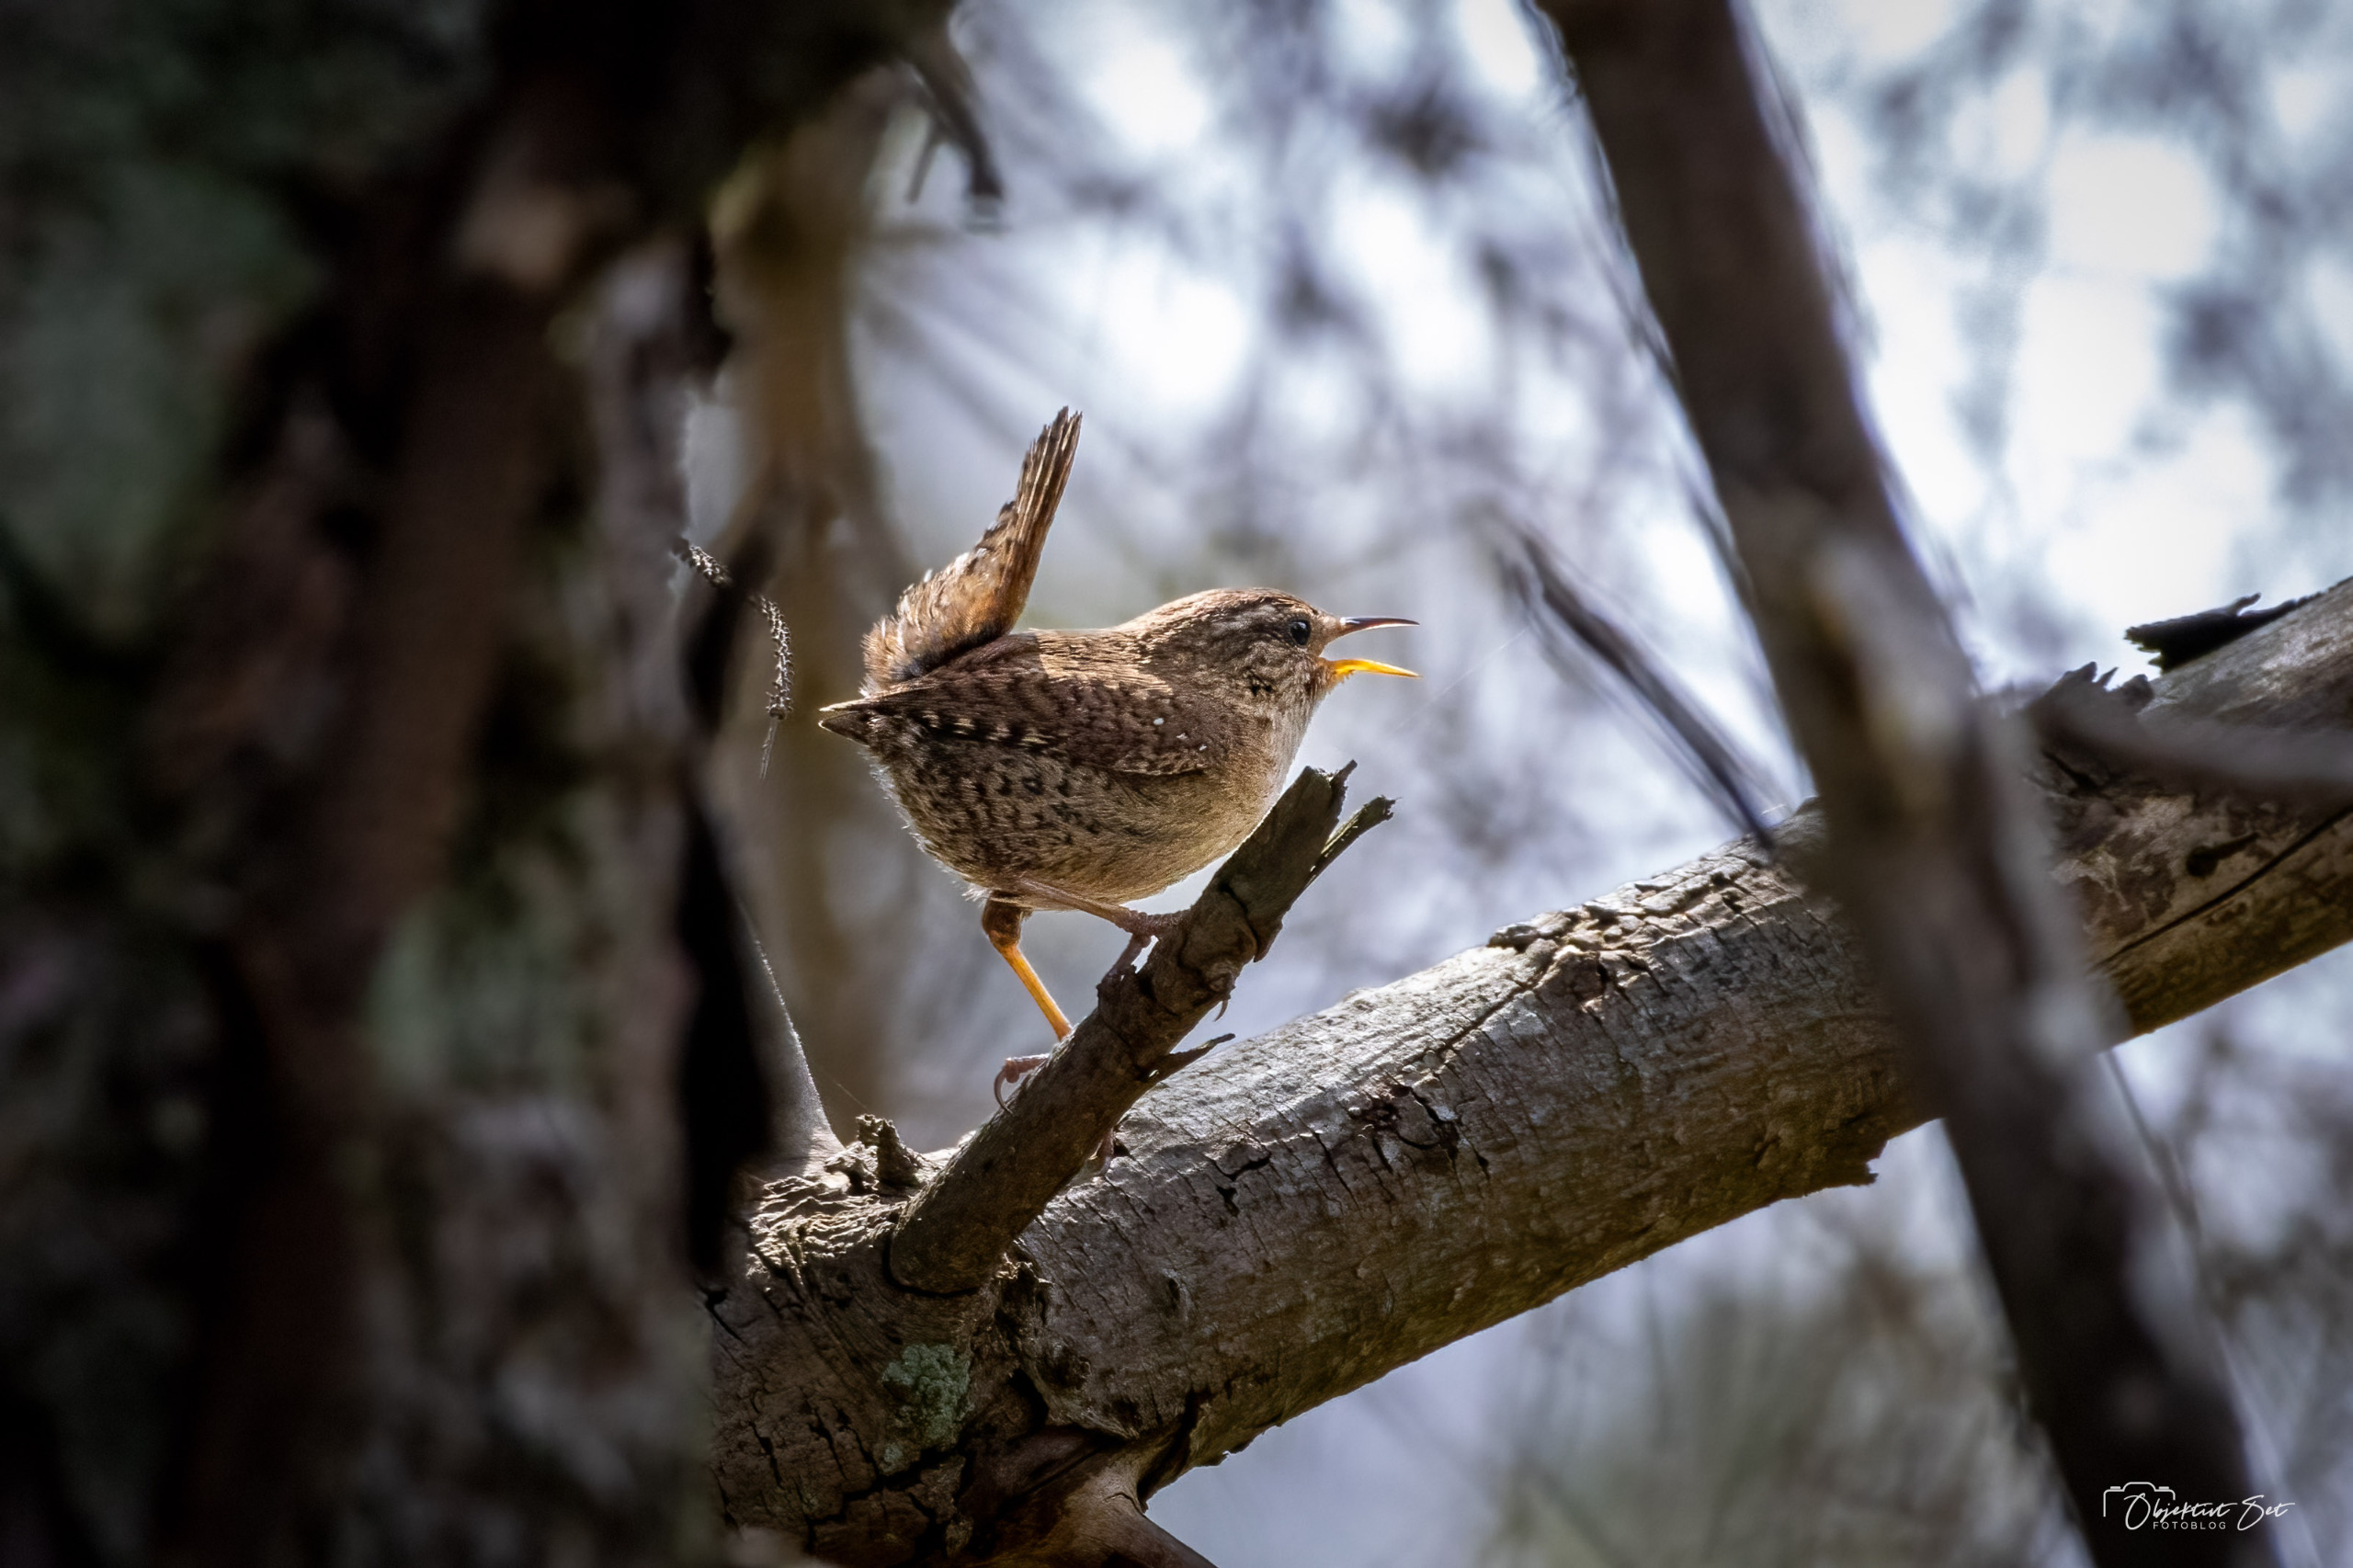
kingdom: Animalia
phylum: Chordata
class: Aves
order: Passeriformes
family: Troglodytidae
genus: Troglodytes
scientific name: Troglodytes troglodytes
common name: Gærdesmutte
